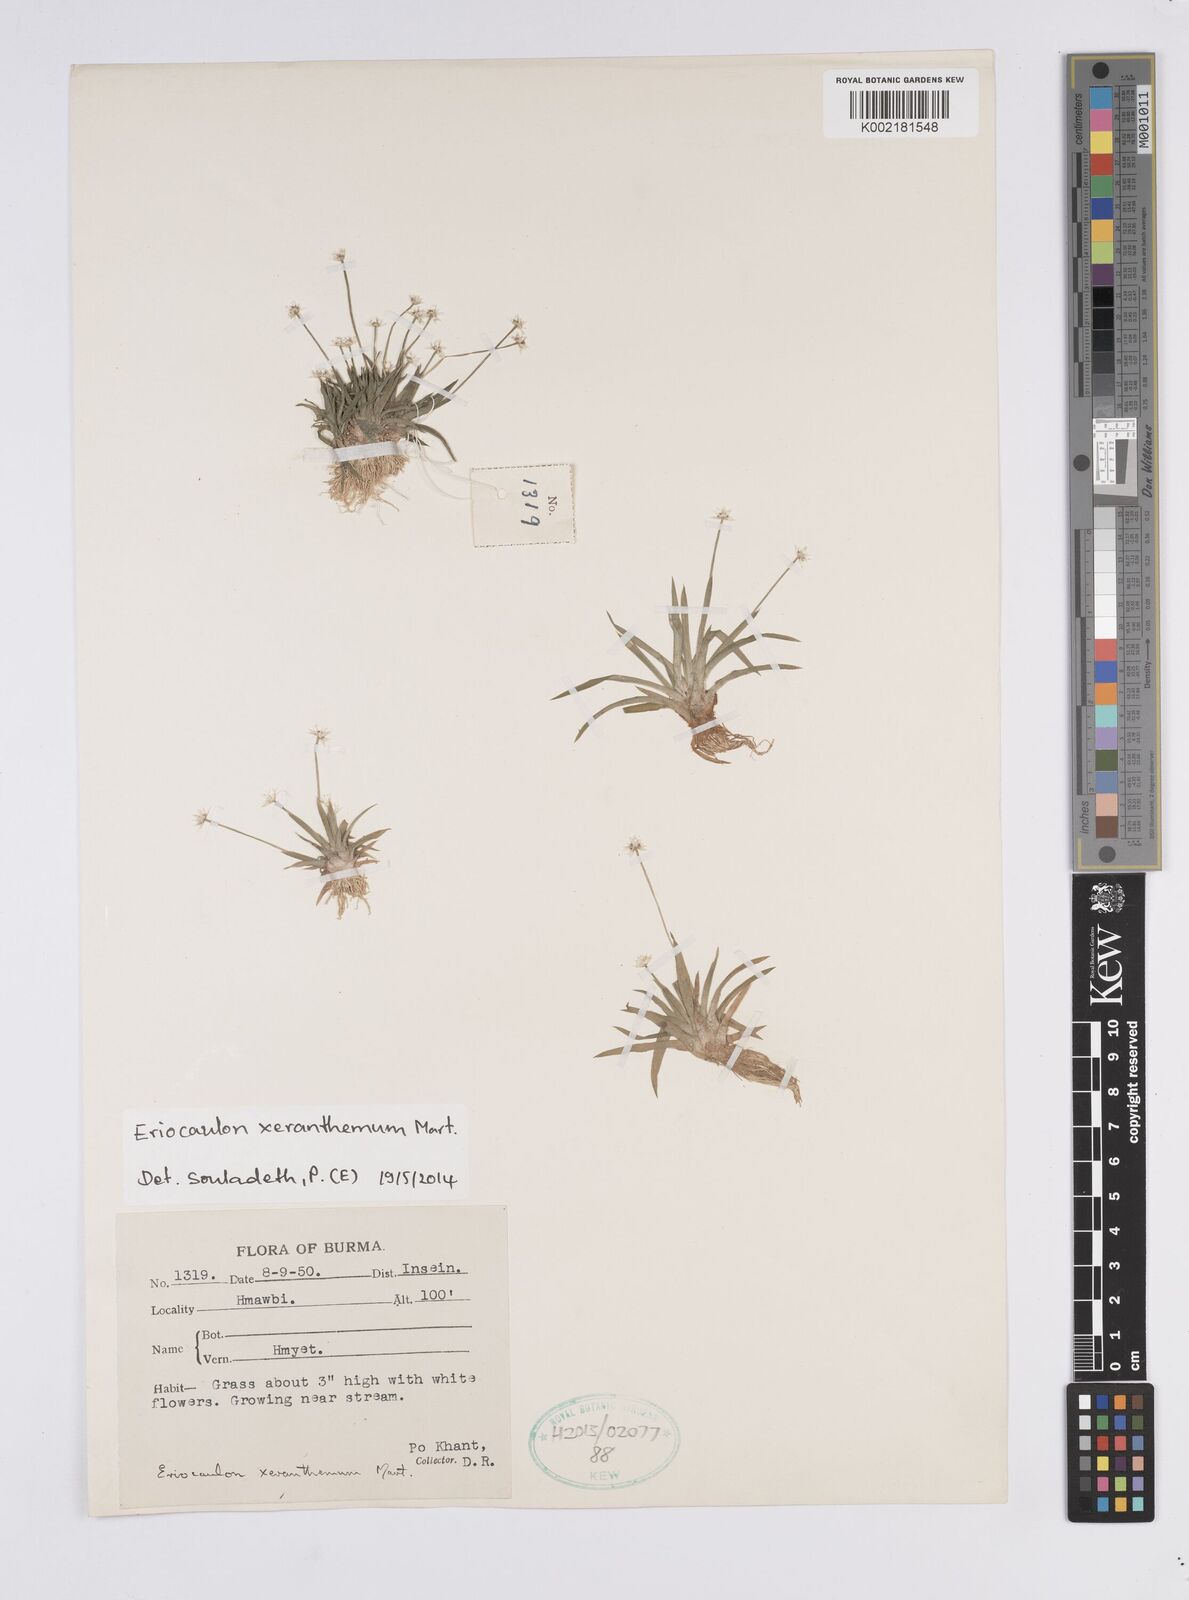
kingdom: Plantae
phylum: Tracheophyta
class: Liliopsida
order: Poales
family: Eriocaulaceae
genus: Eriocaulon
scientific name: Eriocaulon xeranthemum
